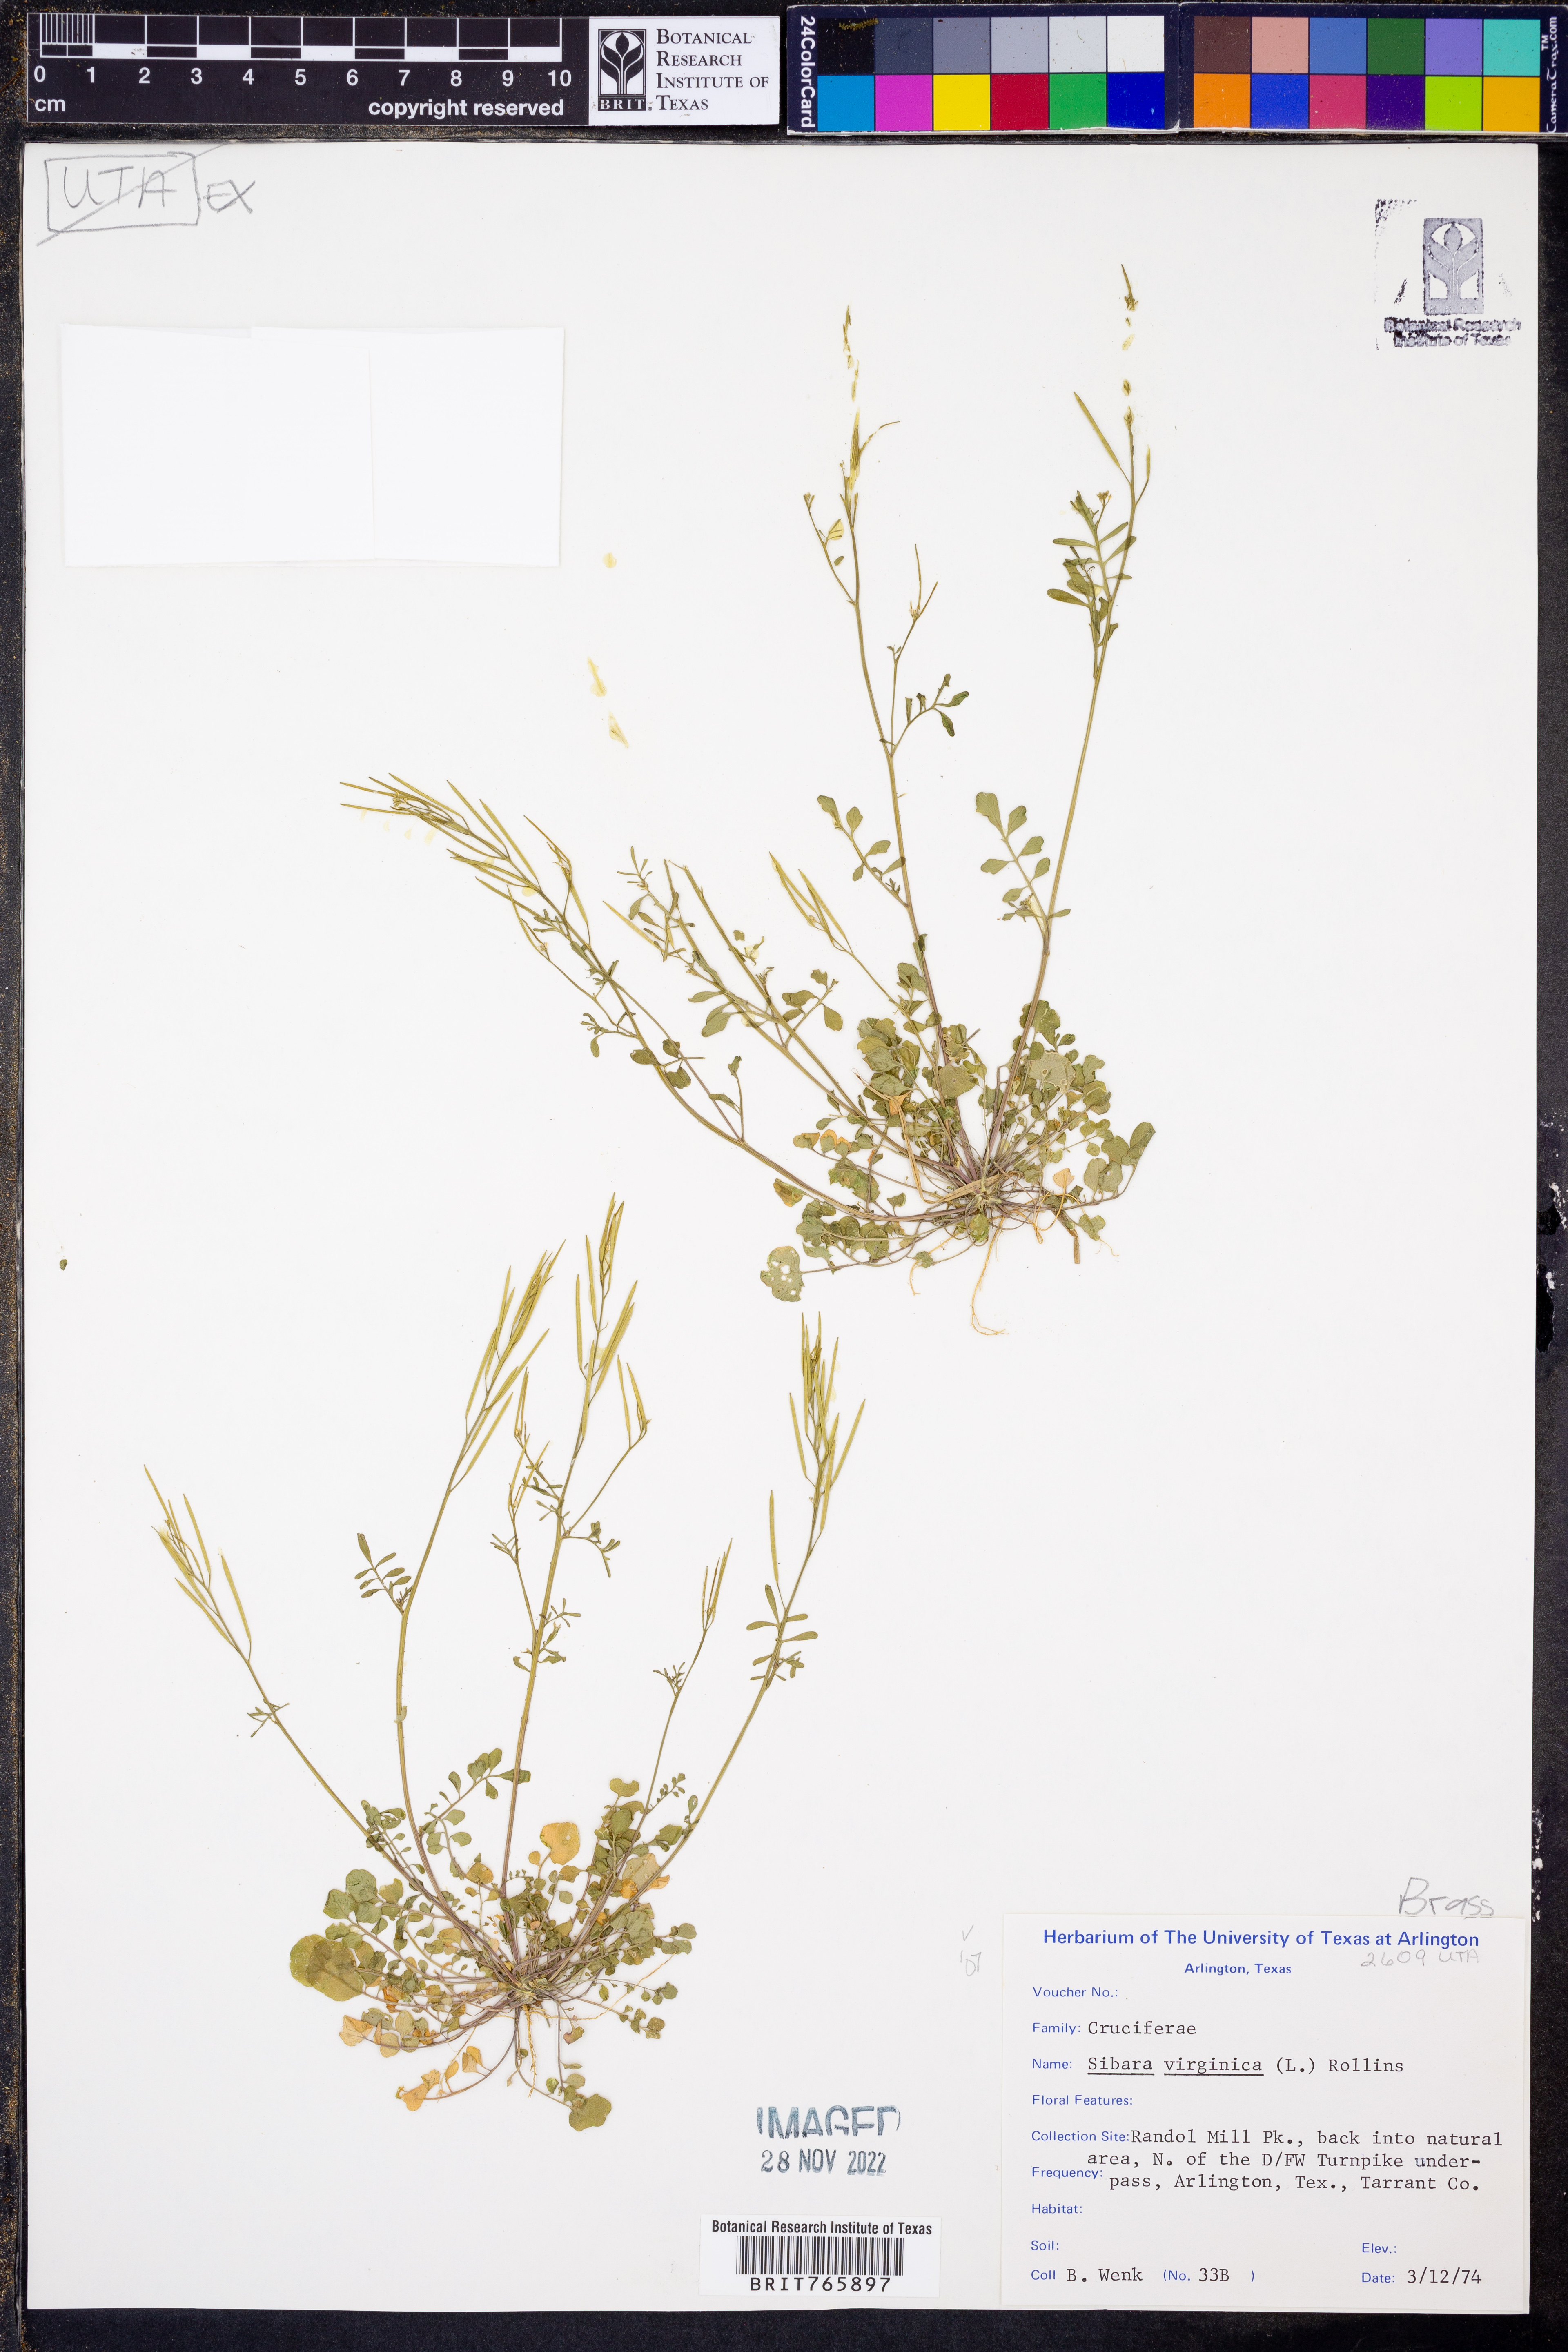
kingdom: Plantae
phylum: Tracheophyta
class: Magnoliopsida
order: Brassicales
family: Brassicaceae
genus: Planodes
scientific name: Planodes virginicum
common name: Virginia cress
